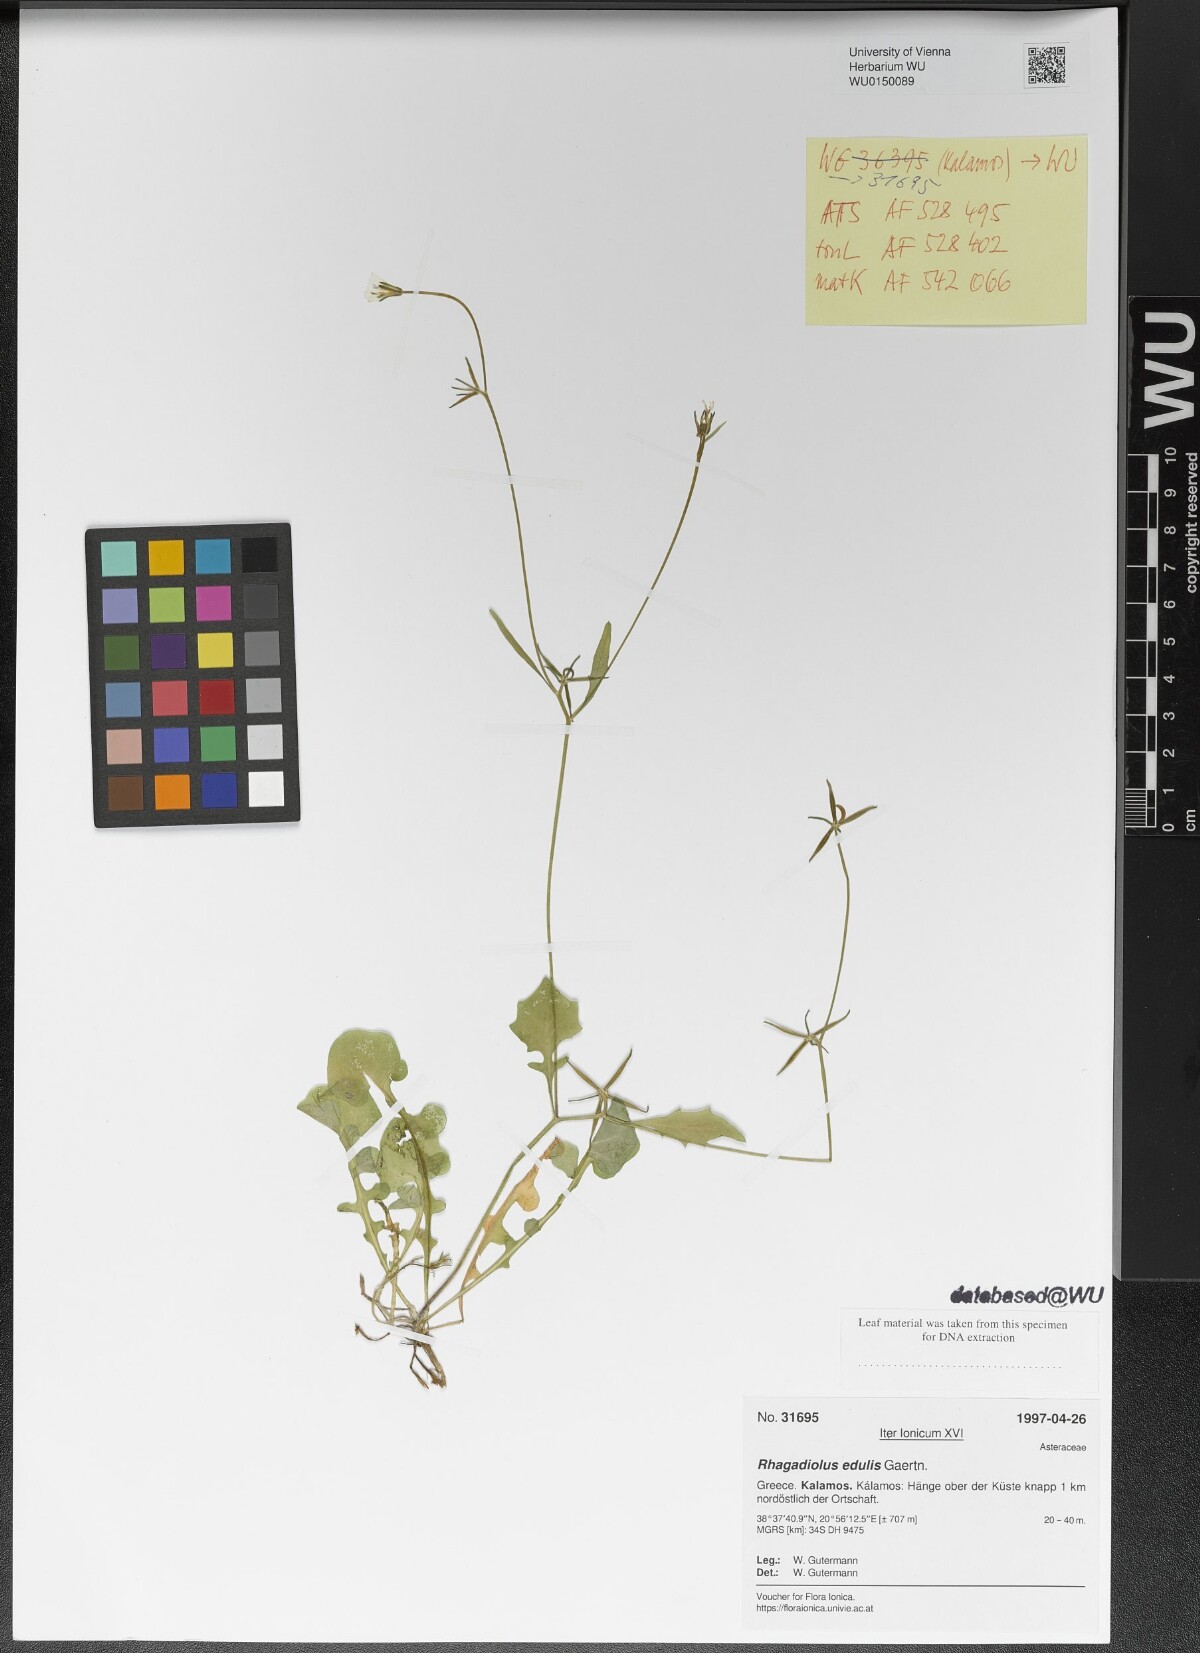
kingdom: Plantae
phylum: Tracheophyta
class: Magnoliopsida
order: Asterales
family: Asteraceae
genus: Rhagadiolus
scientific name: Rhagadiolus edulis
